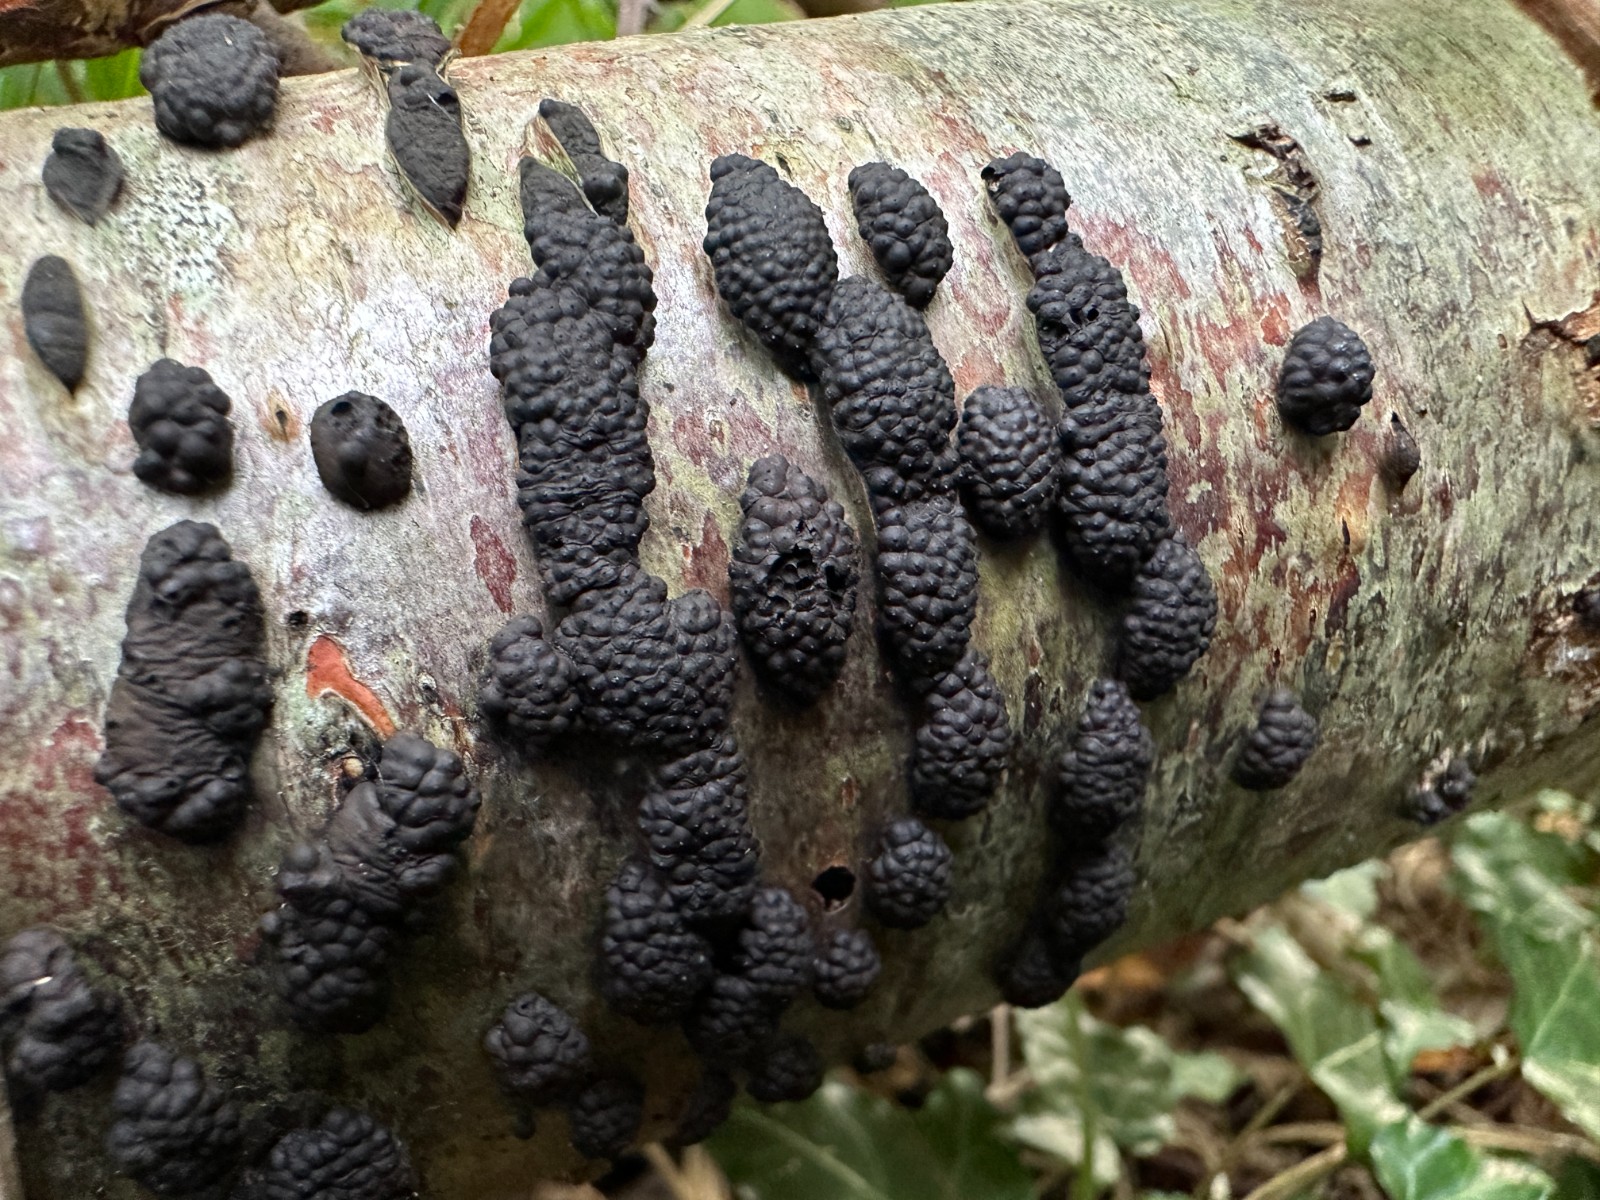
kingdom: Fungi
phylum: Ascomycota
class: Sordariomycetes
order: Xylariales
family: Hypoxylaceae
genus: Jackrogersella
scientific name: Jackrogersella multiformis
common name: foranderlig kulbær
